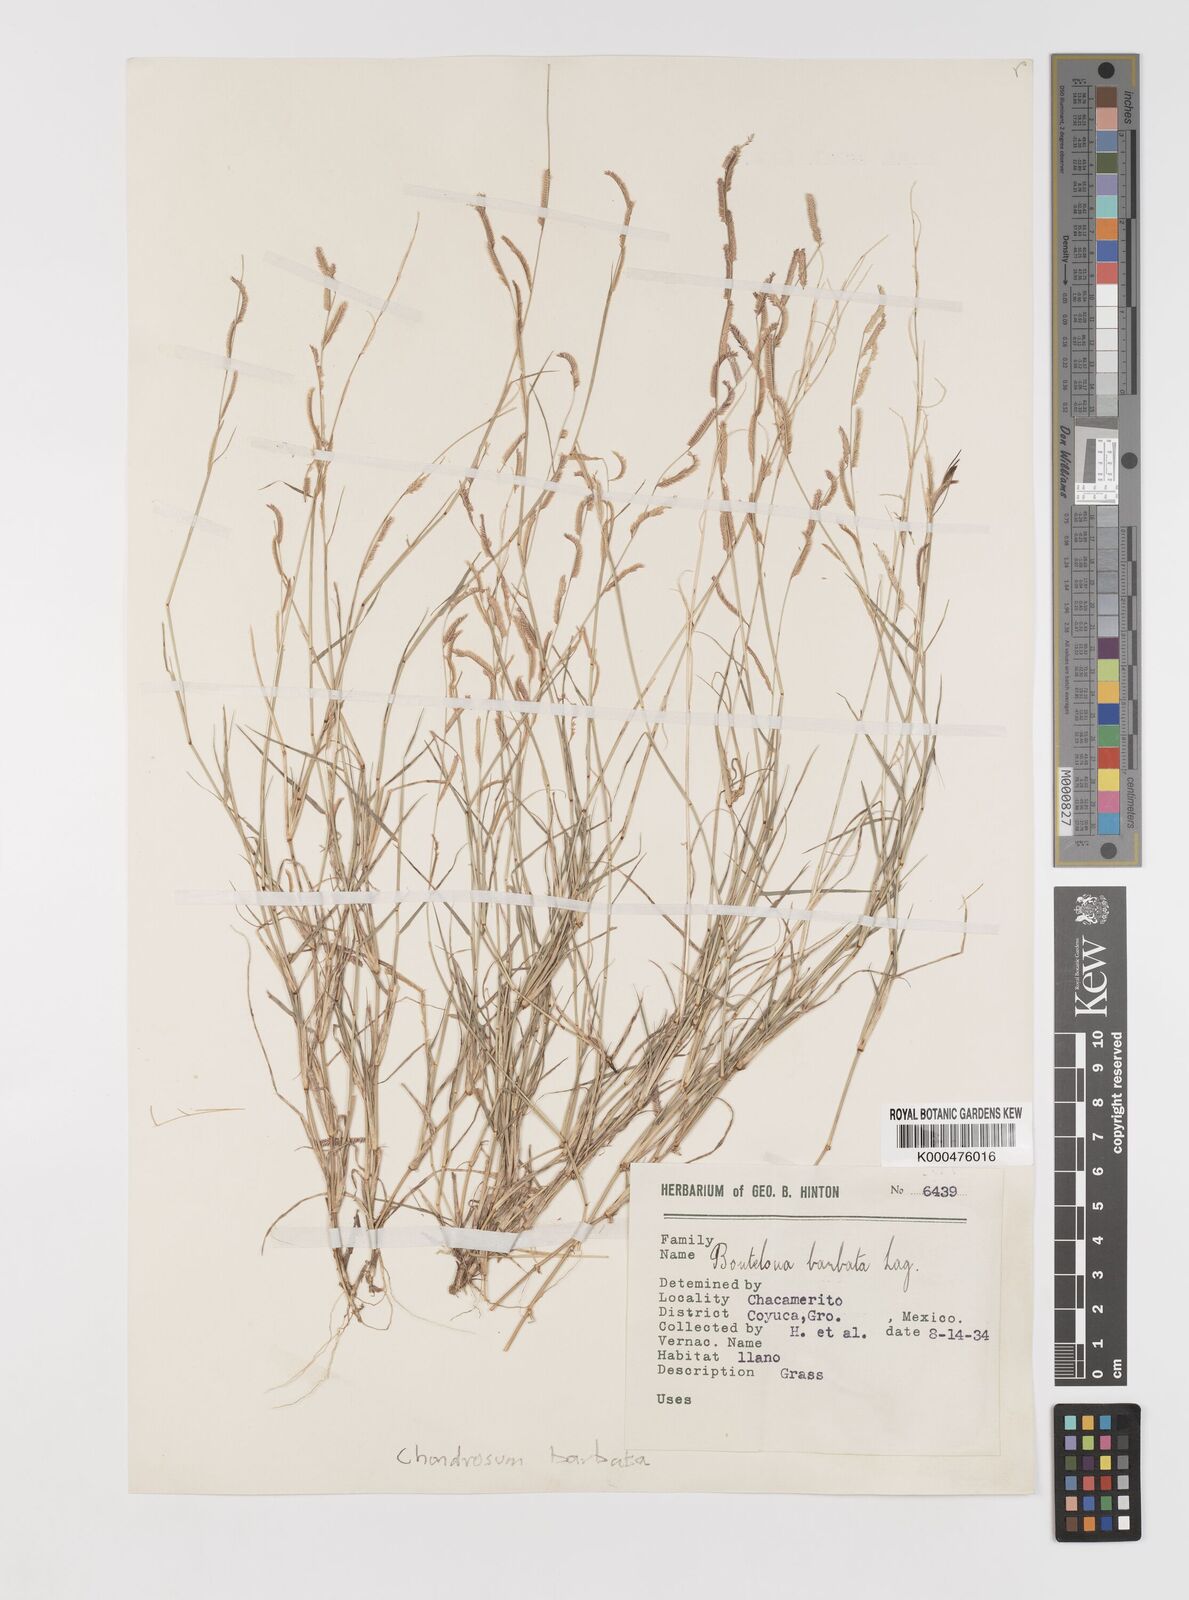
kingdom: Plantae
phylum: Tracheophyta
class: Liliopsida
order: Poales
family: Poaceae
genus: Bouteloua
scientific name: Bouteloua barbata
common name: Six-weeks grama
